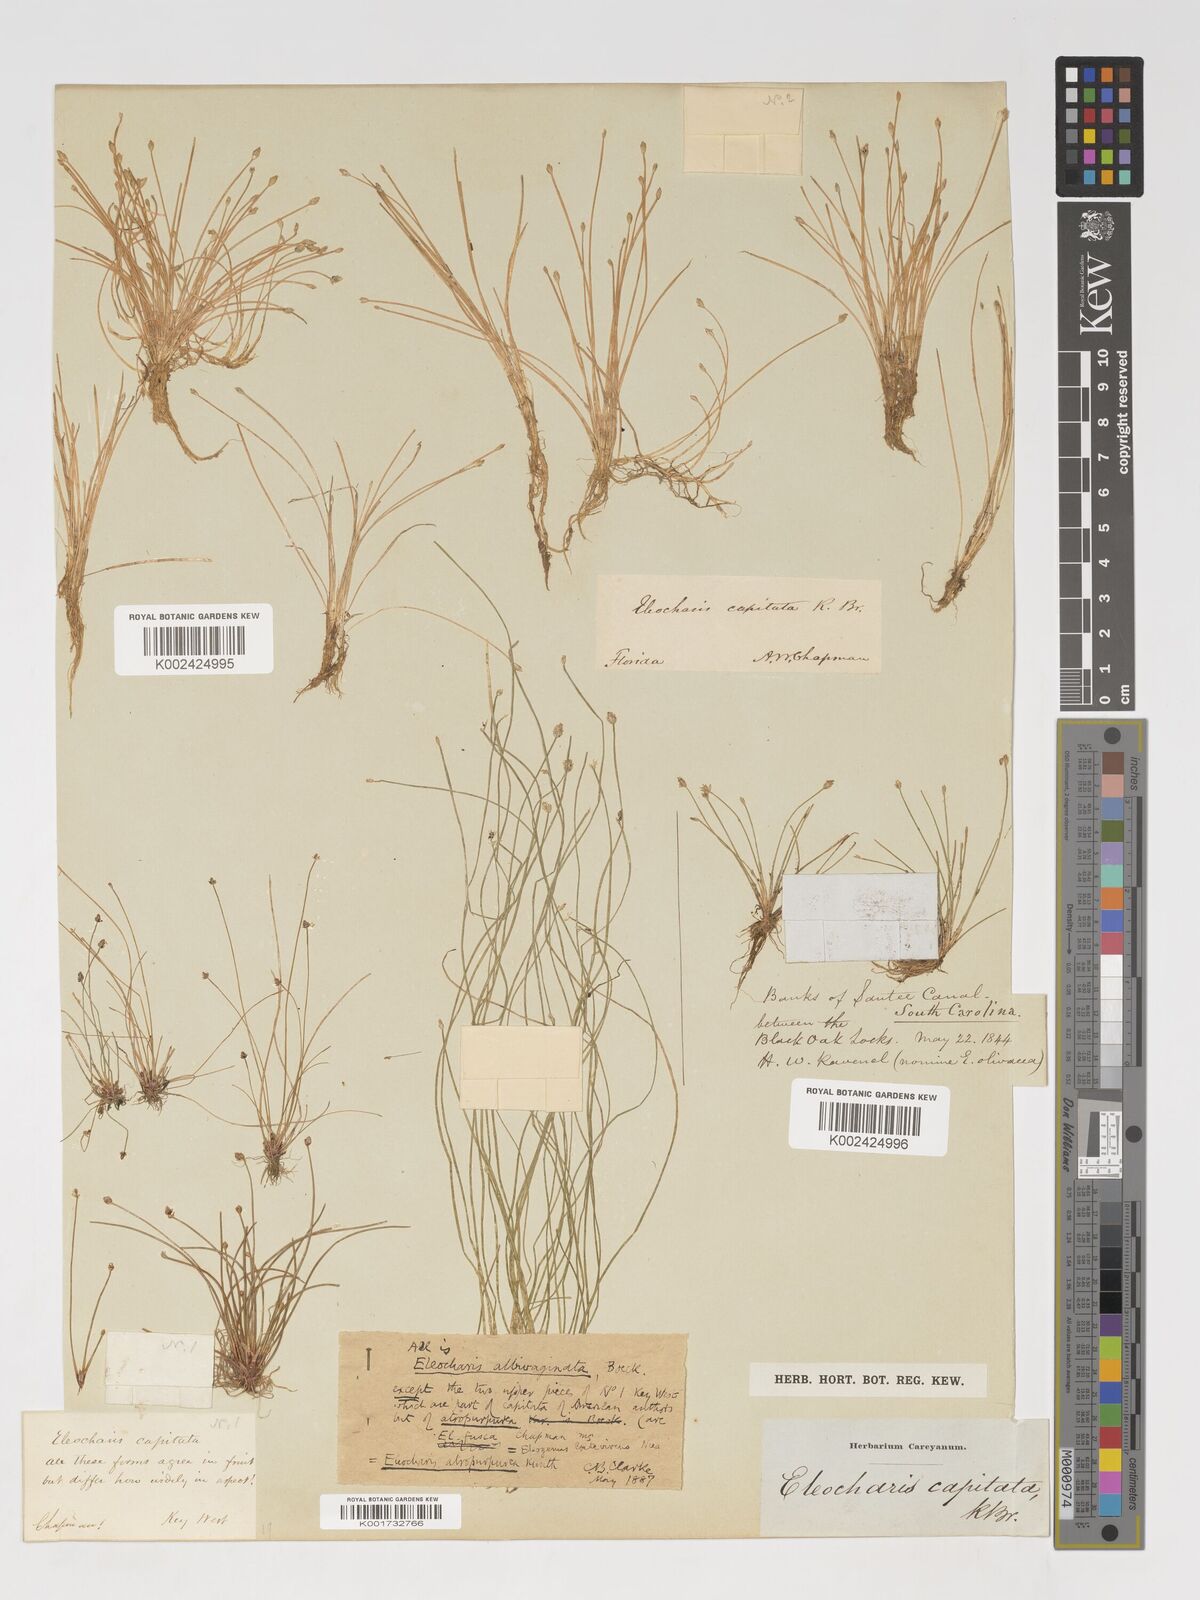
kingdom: Plantae
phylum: Tracheophyta
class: Liliopsida
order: Poales
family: Cyperaceae
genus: Eleocharis
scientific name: Eleocharis flavescens
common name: Yellow spikerush
